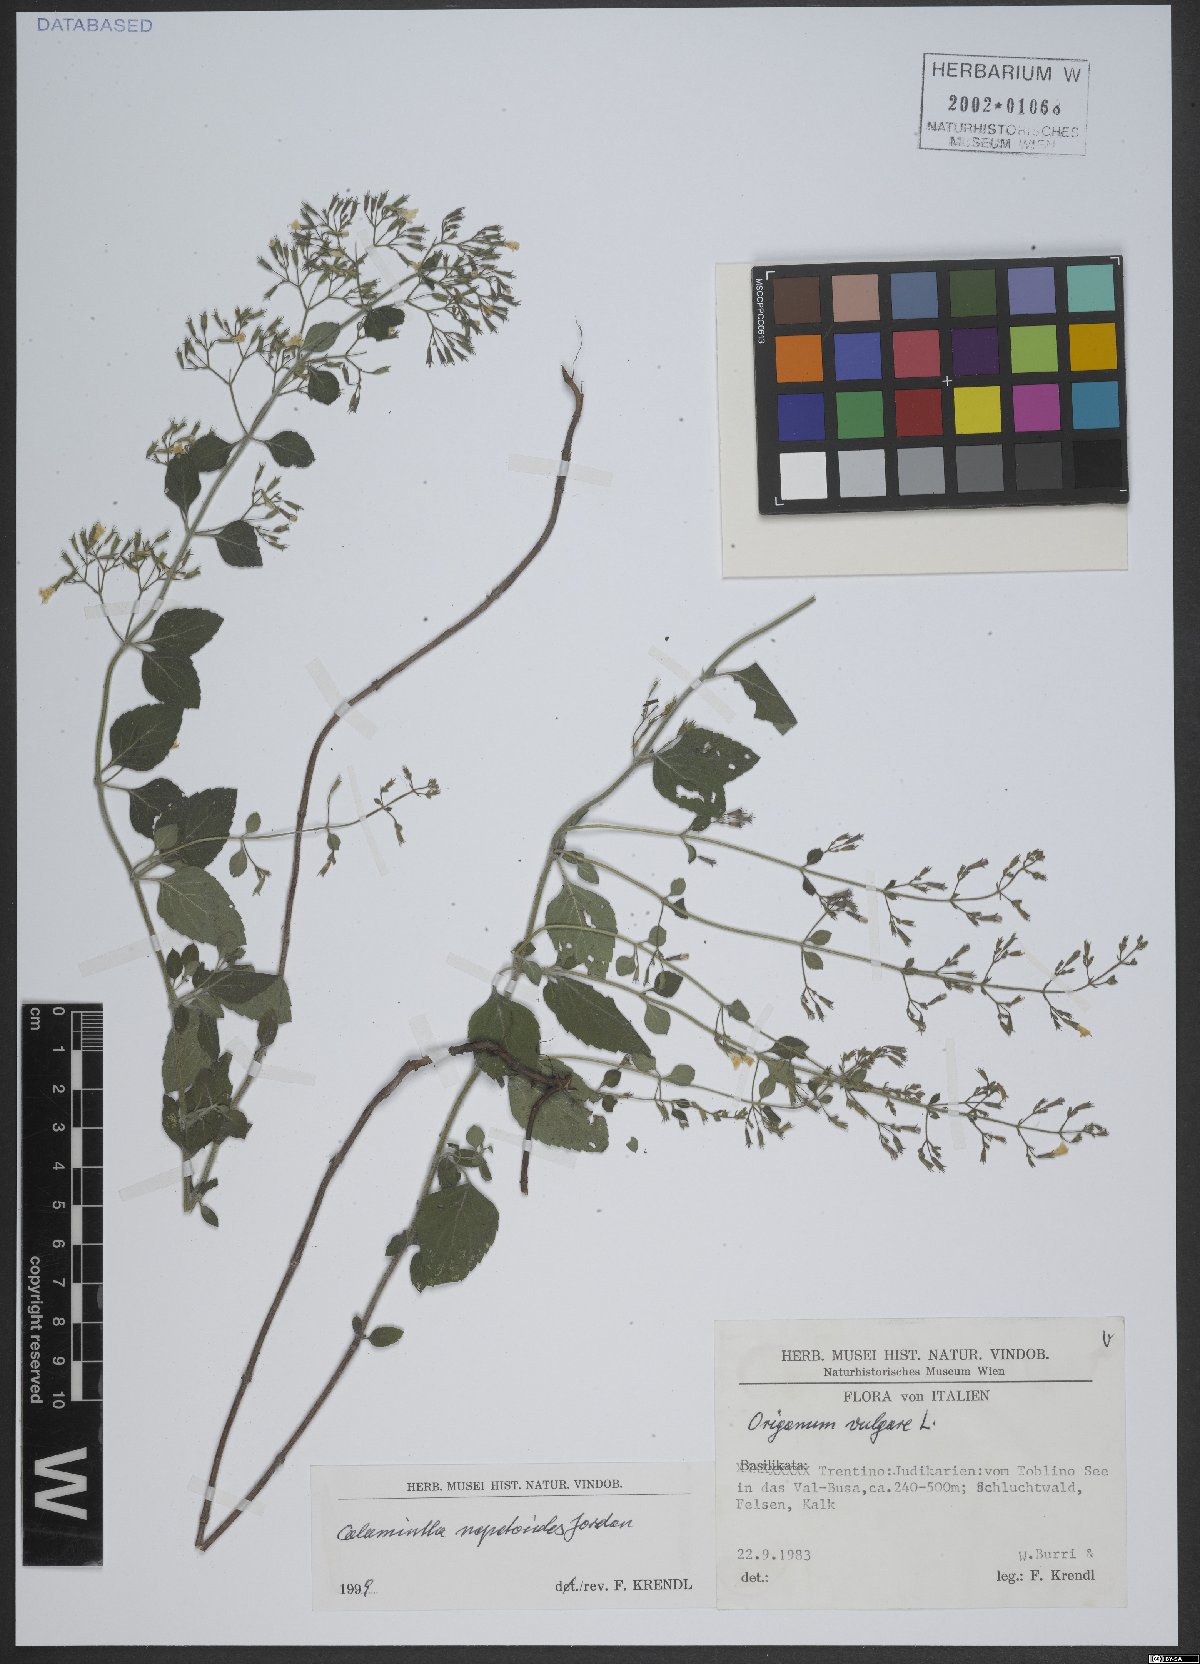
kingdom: Plantae
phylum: Tracheophyta
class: Magnoliopsida
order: Lamiales
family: Lamiaceae
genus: Clinopodium
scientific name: Clinopodium nepeta
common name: Lesser calamint
